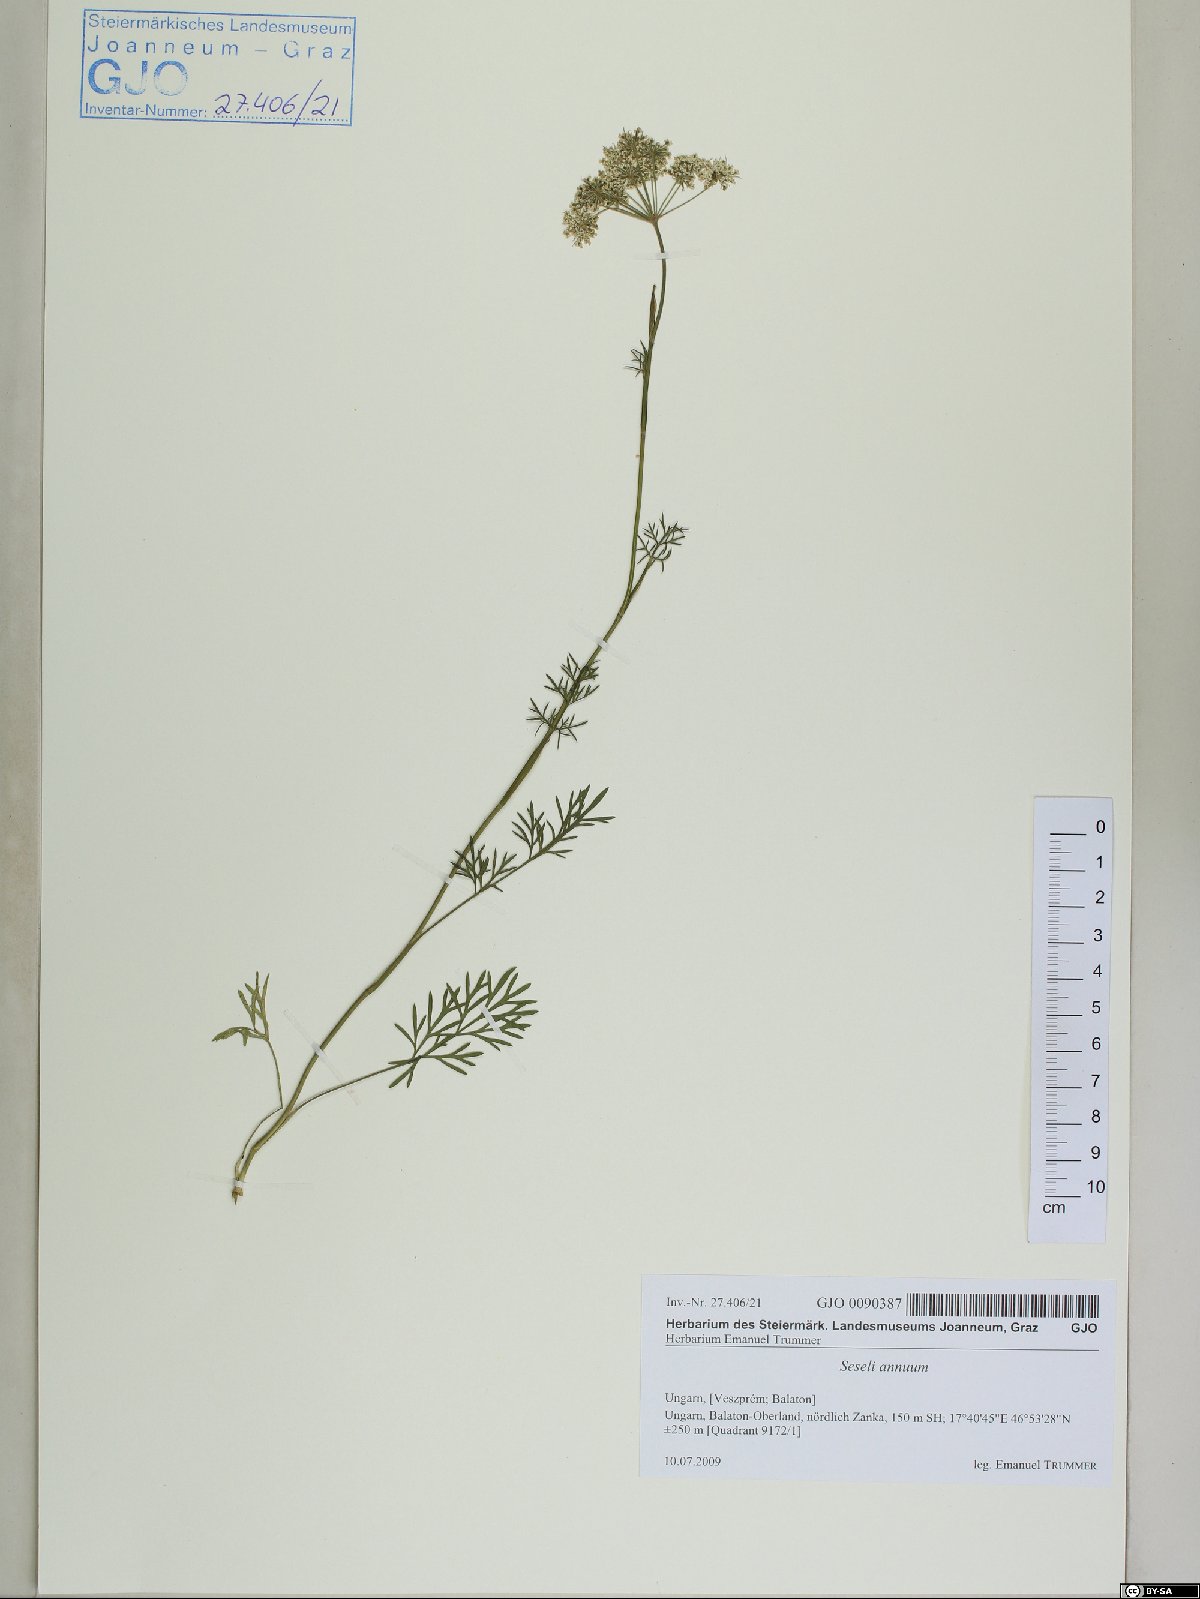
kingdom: Plantae
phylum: Tracheophyta
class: Magnoliopsida
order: Apiales
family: Apiaceae
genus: Seseli
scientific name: Seseli annuum
